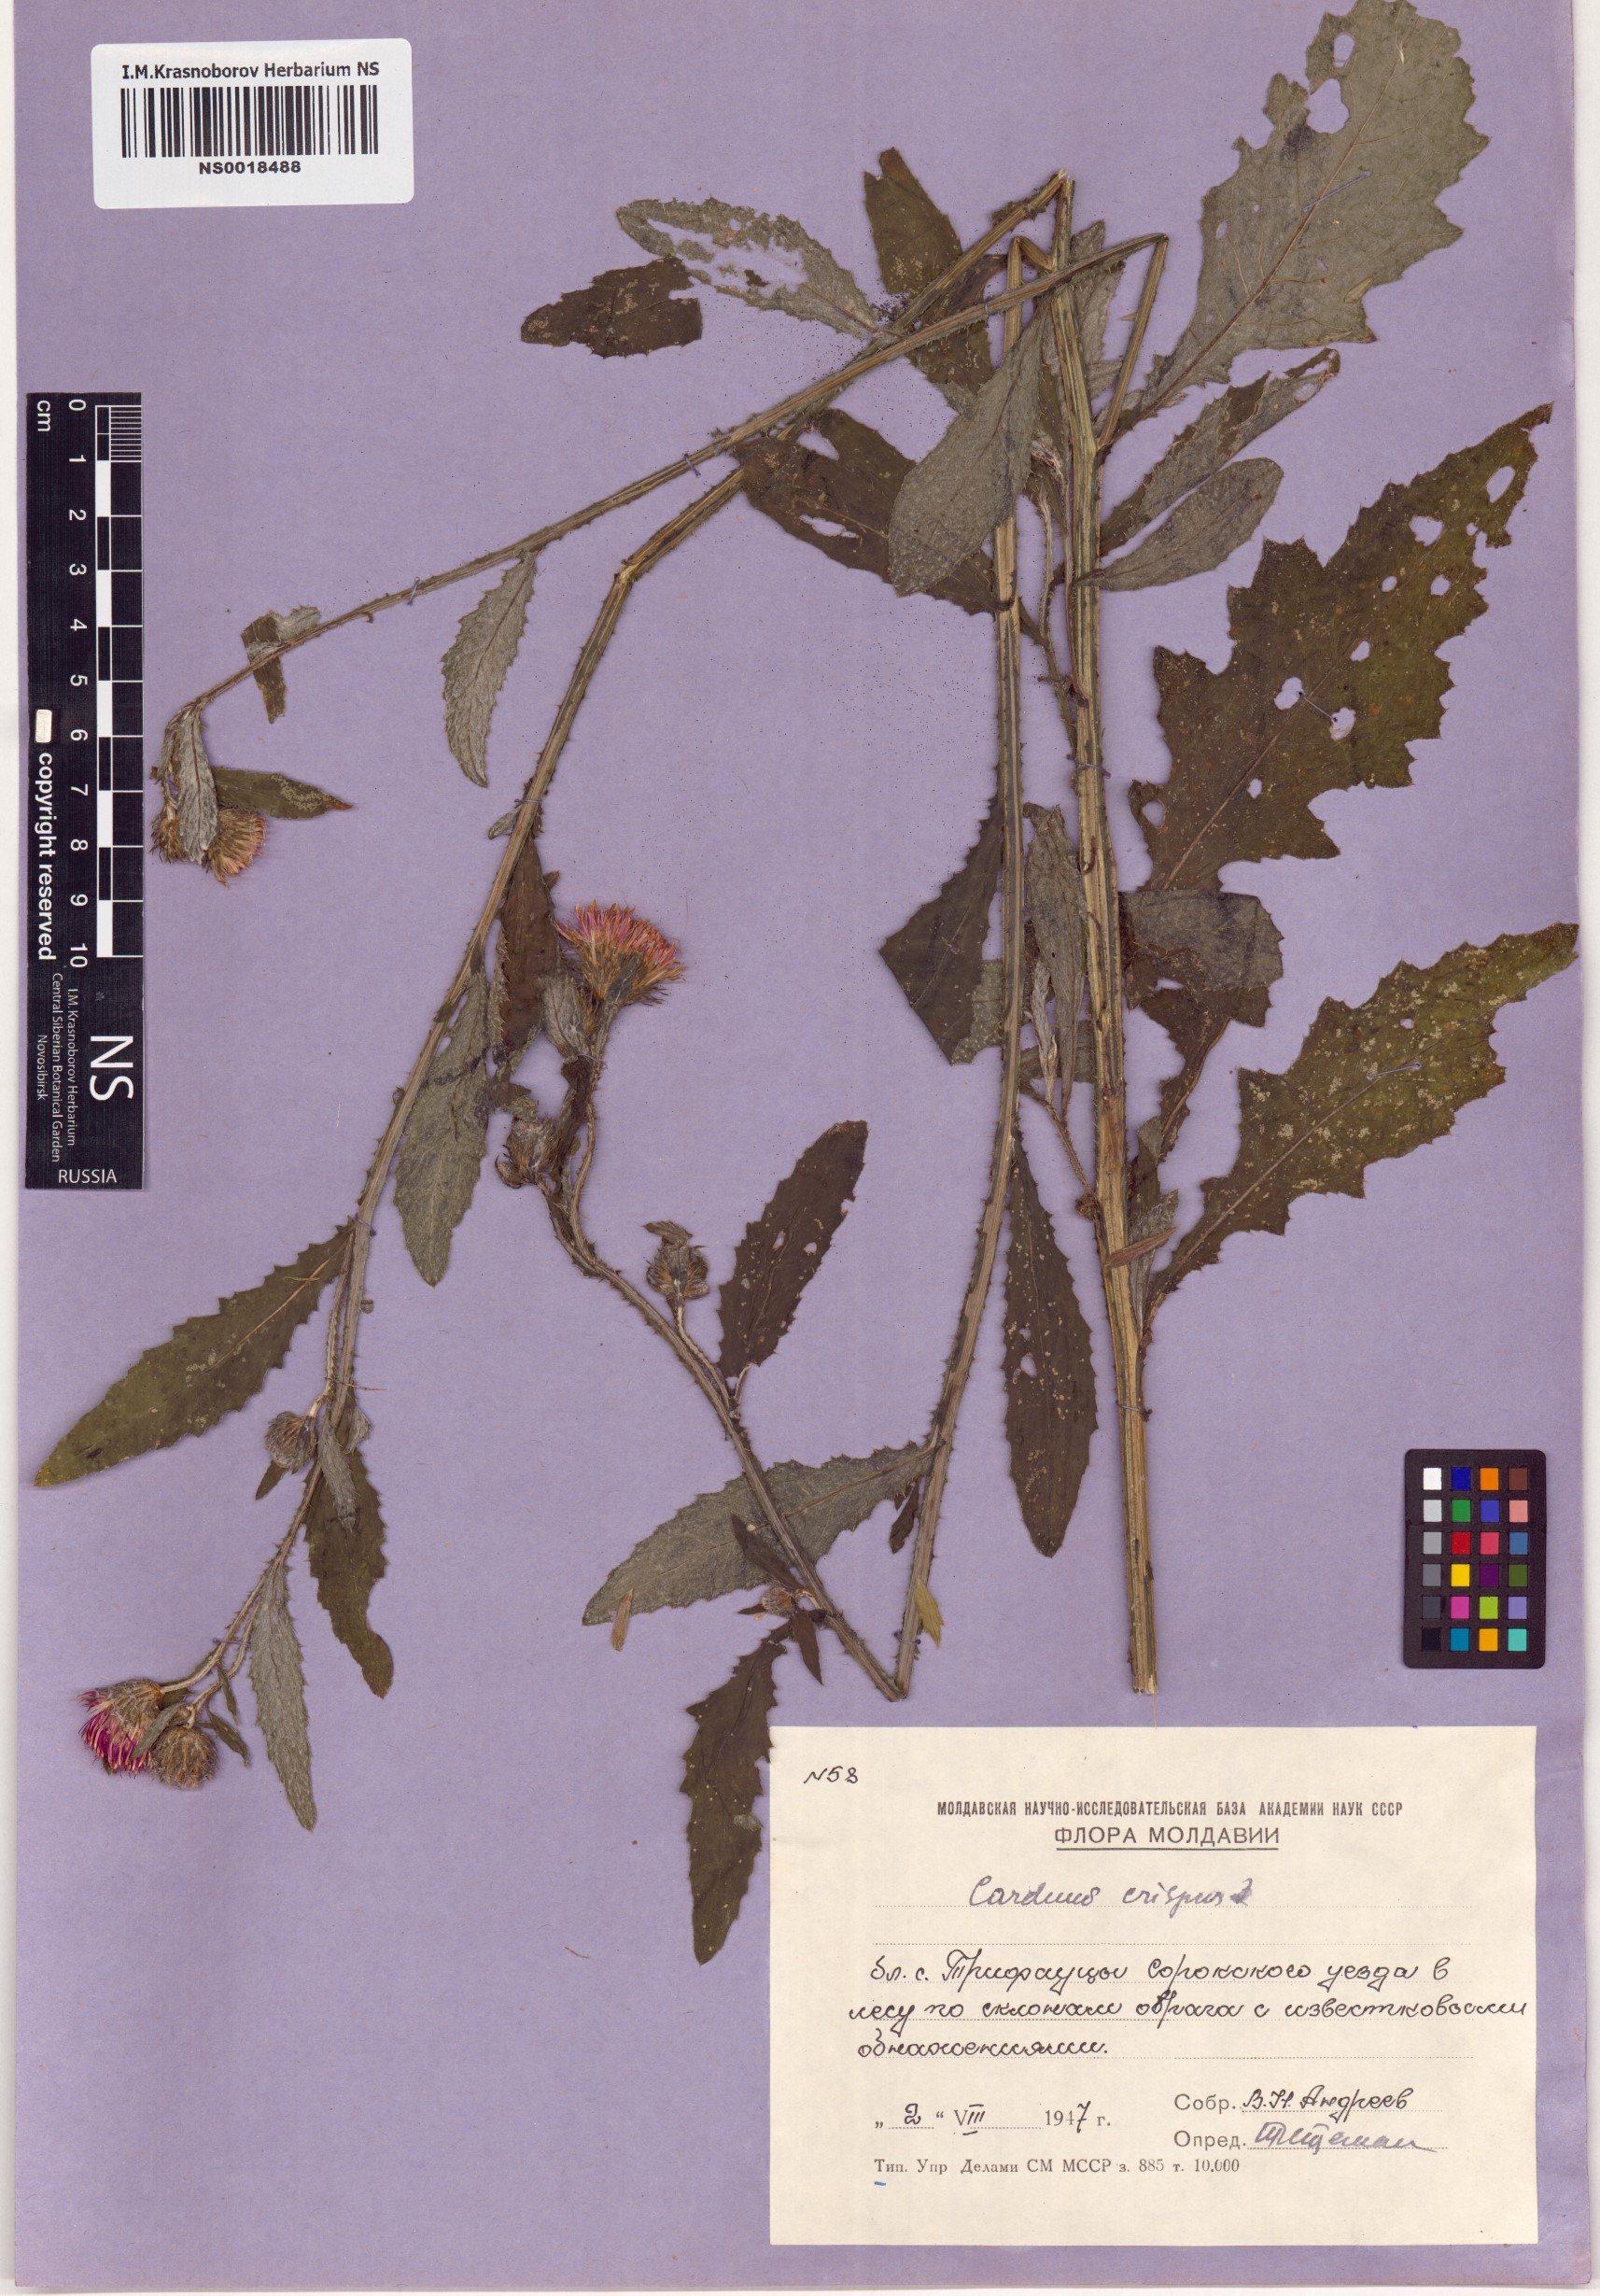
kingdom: Plantae
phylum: Tracheophyta
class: Magnoliopsida
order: Asterales
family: Asteraceae
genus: Carduus
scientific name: Carduus crispus
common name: Welted thistle
